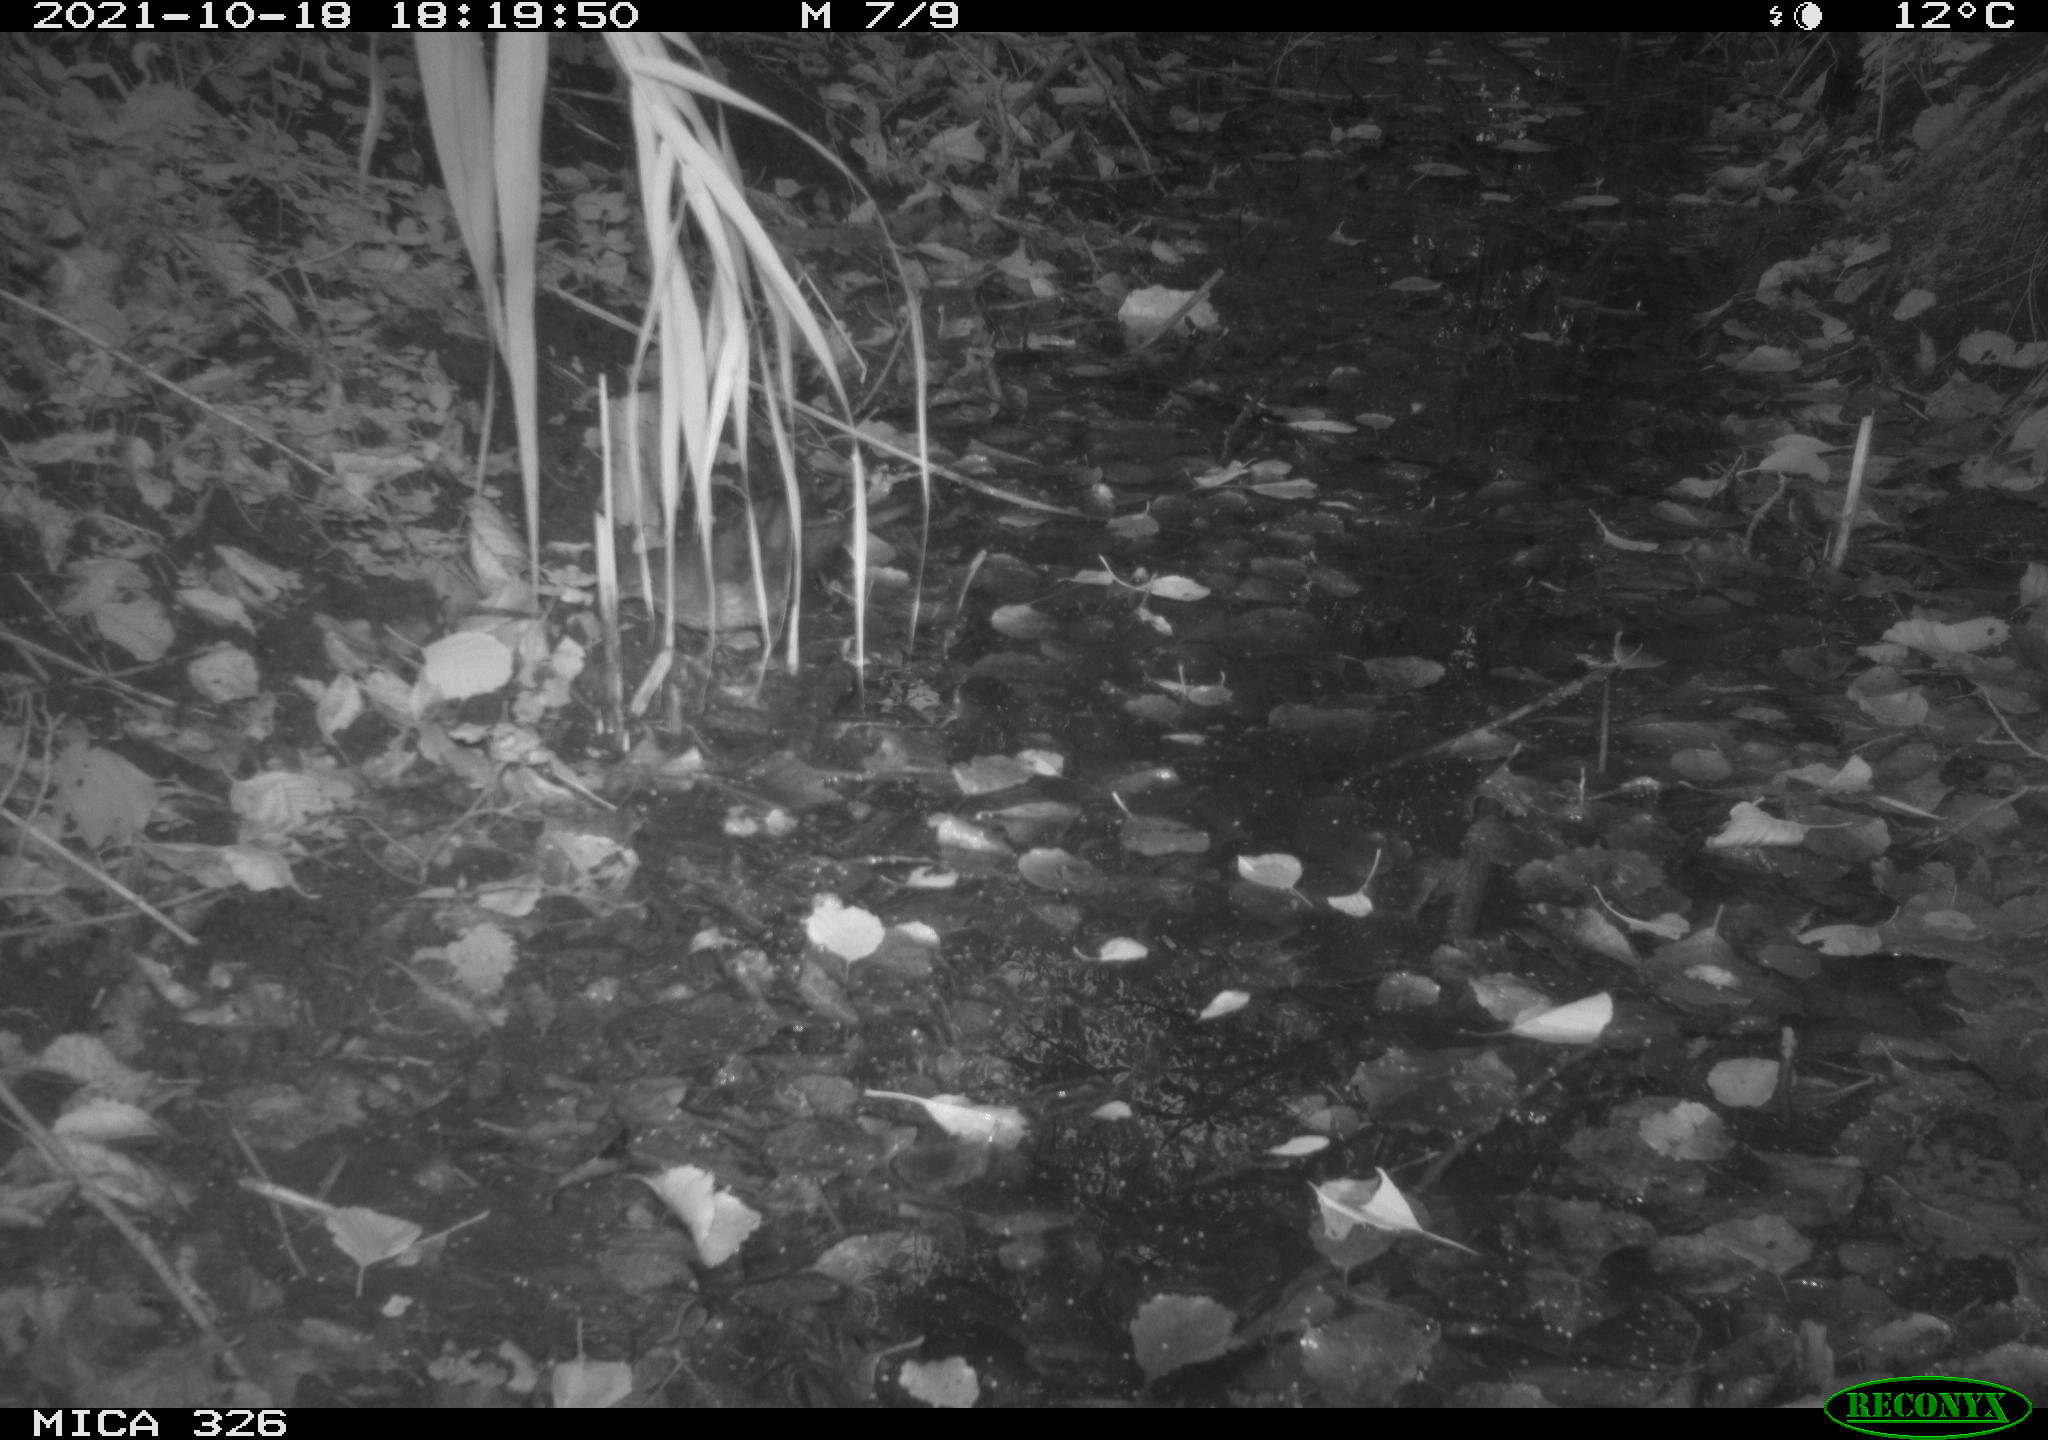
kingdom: Animalia
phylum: Chordata
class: Aves
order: Passeriformes
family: Turdidae
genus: Turdus
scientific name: Turdus philomelos
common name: Song thrush
